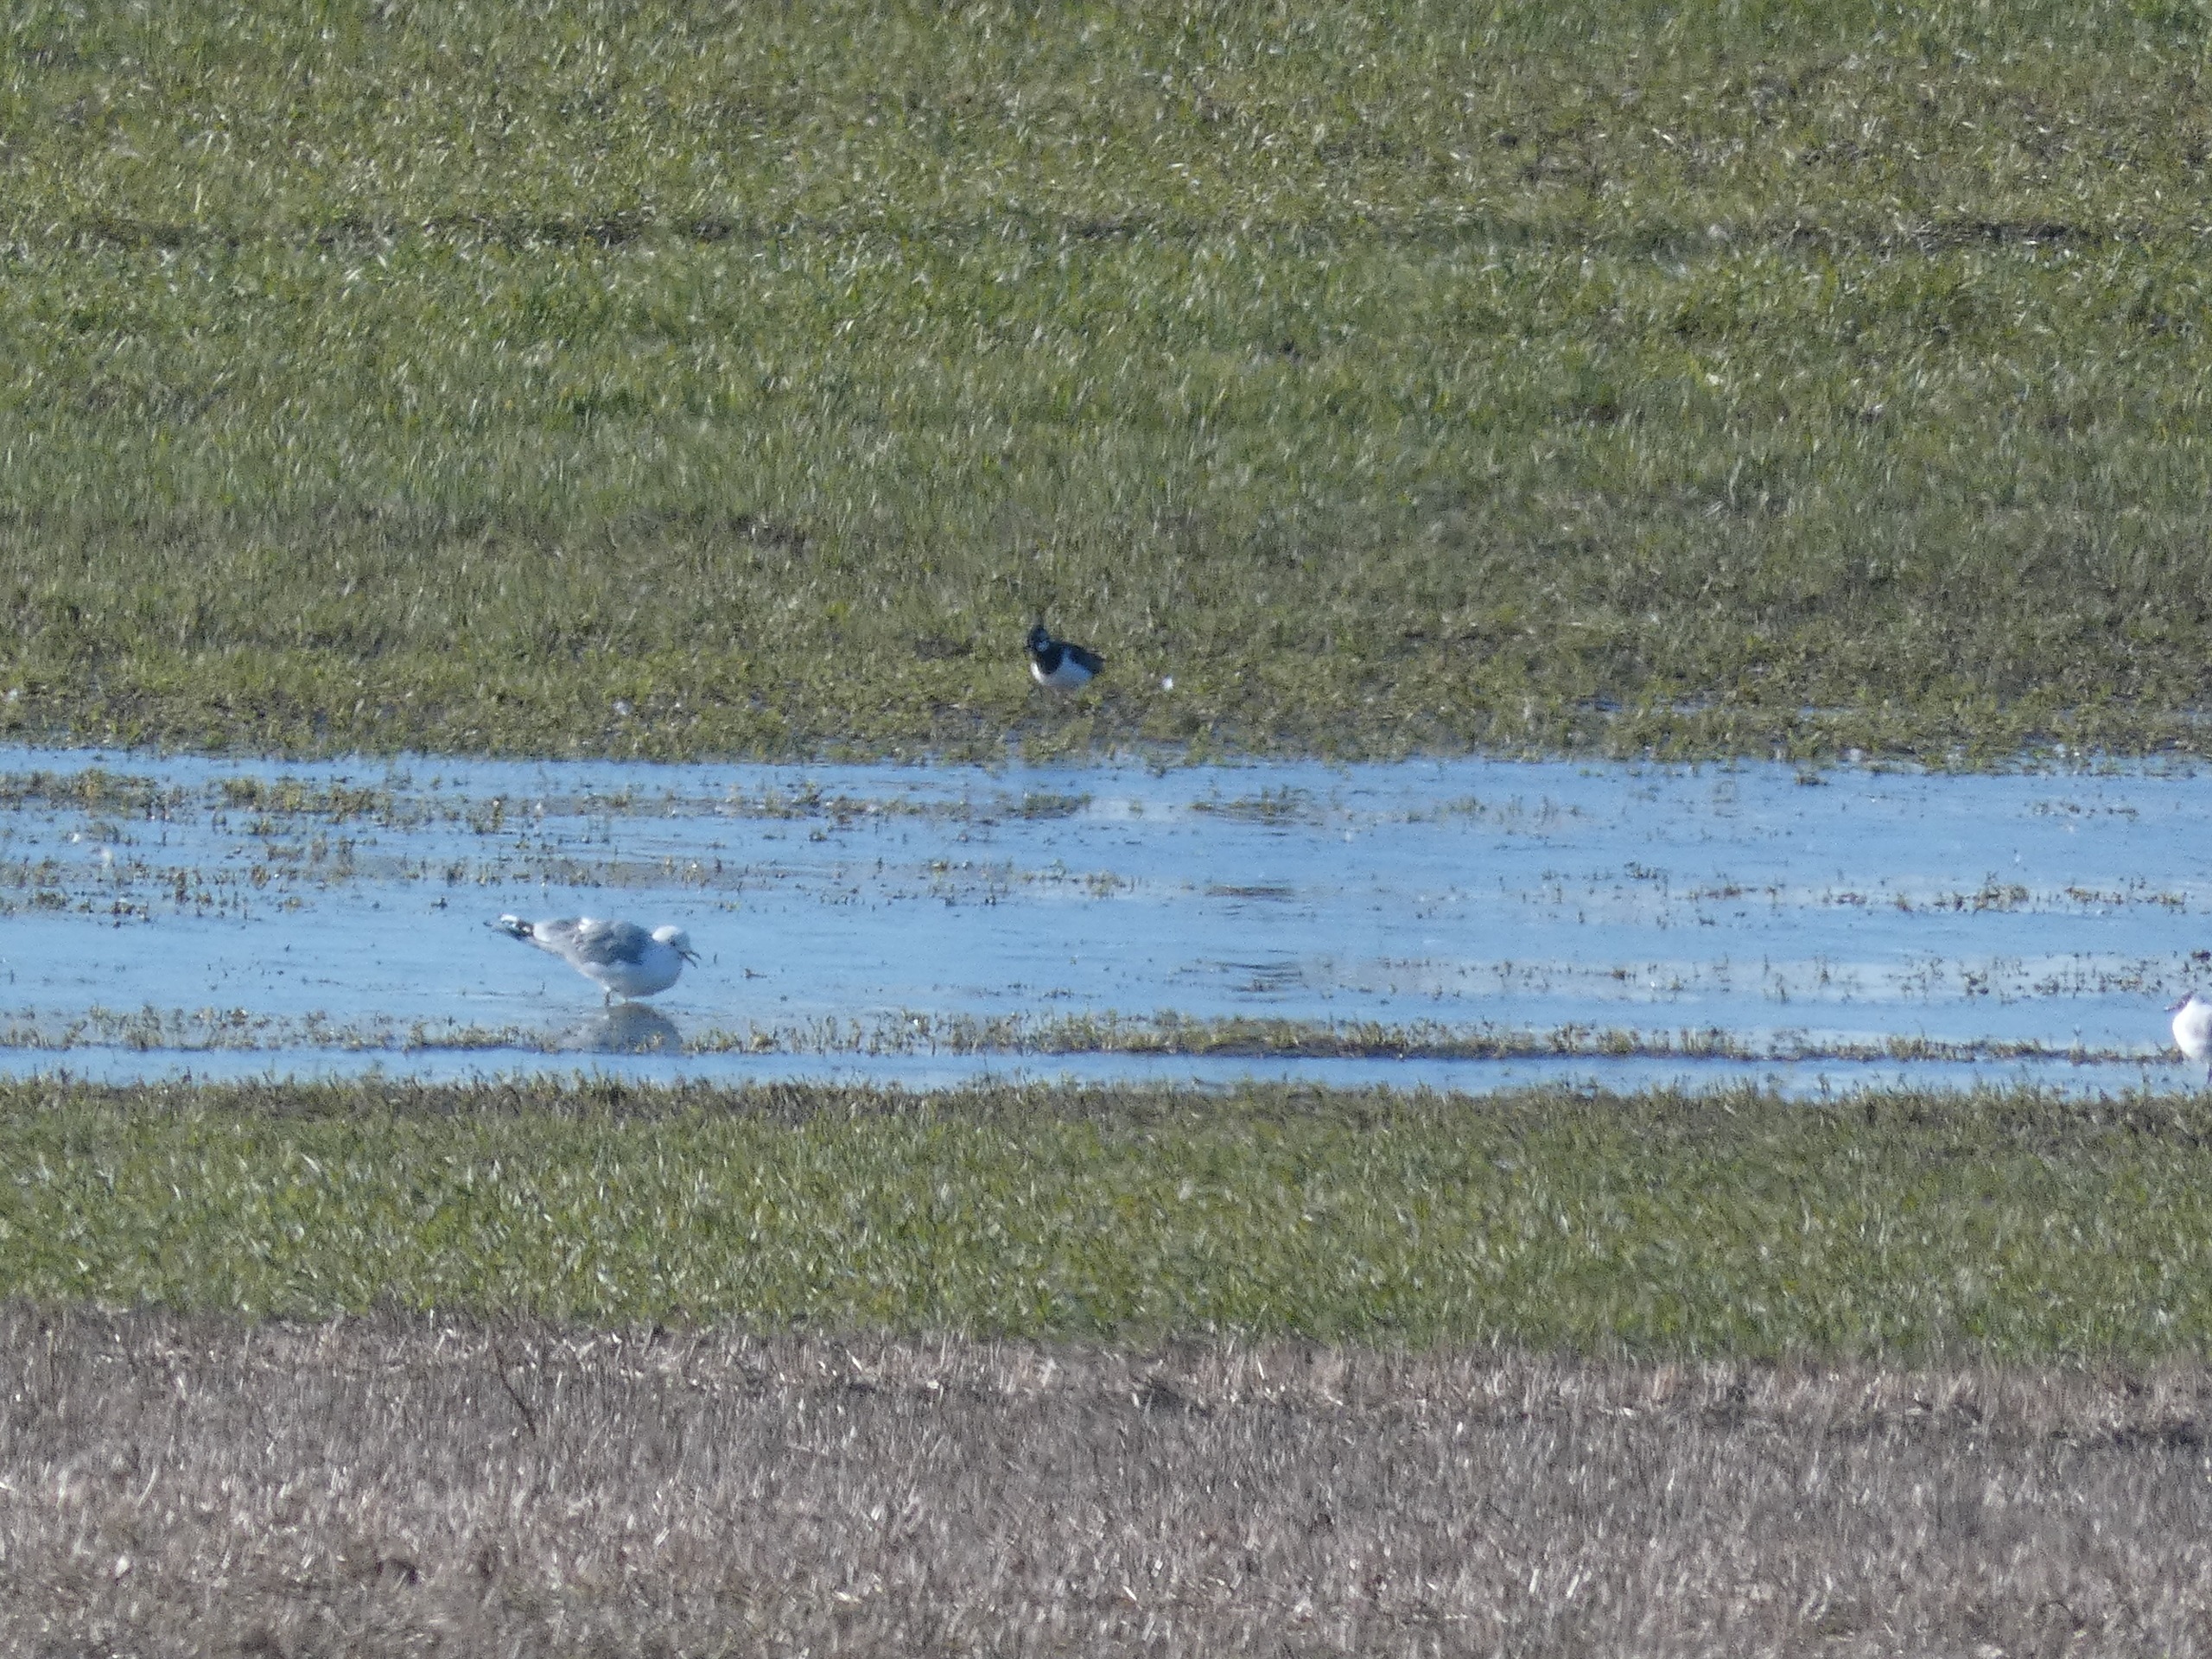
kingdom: Animalia
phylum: Chordata
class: Aves
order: Charadriiformes
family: Laridae
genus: Larus
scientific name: Larus canus
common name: Stormmåge
